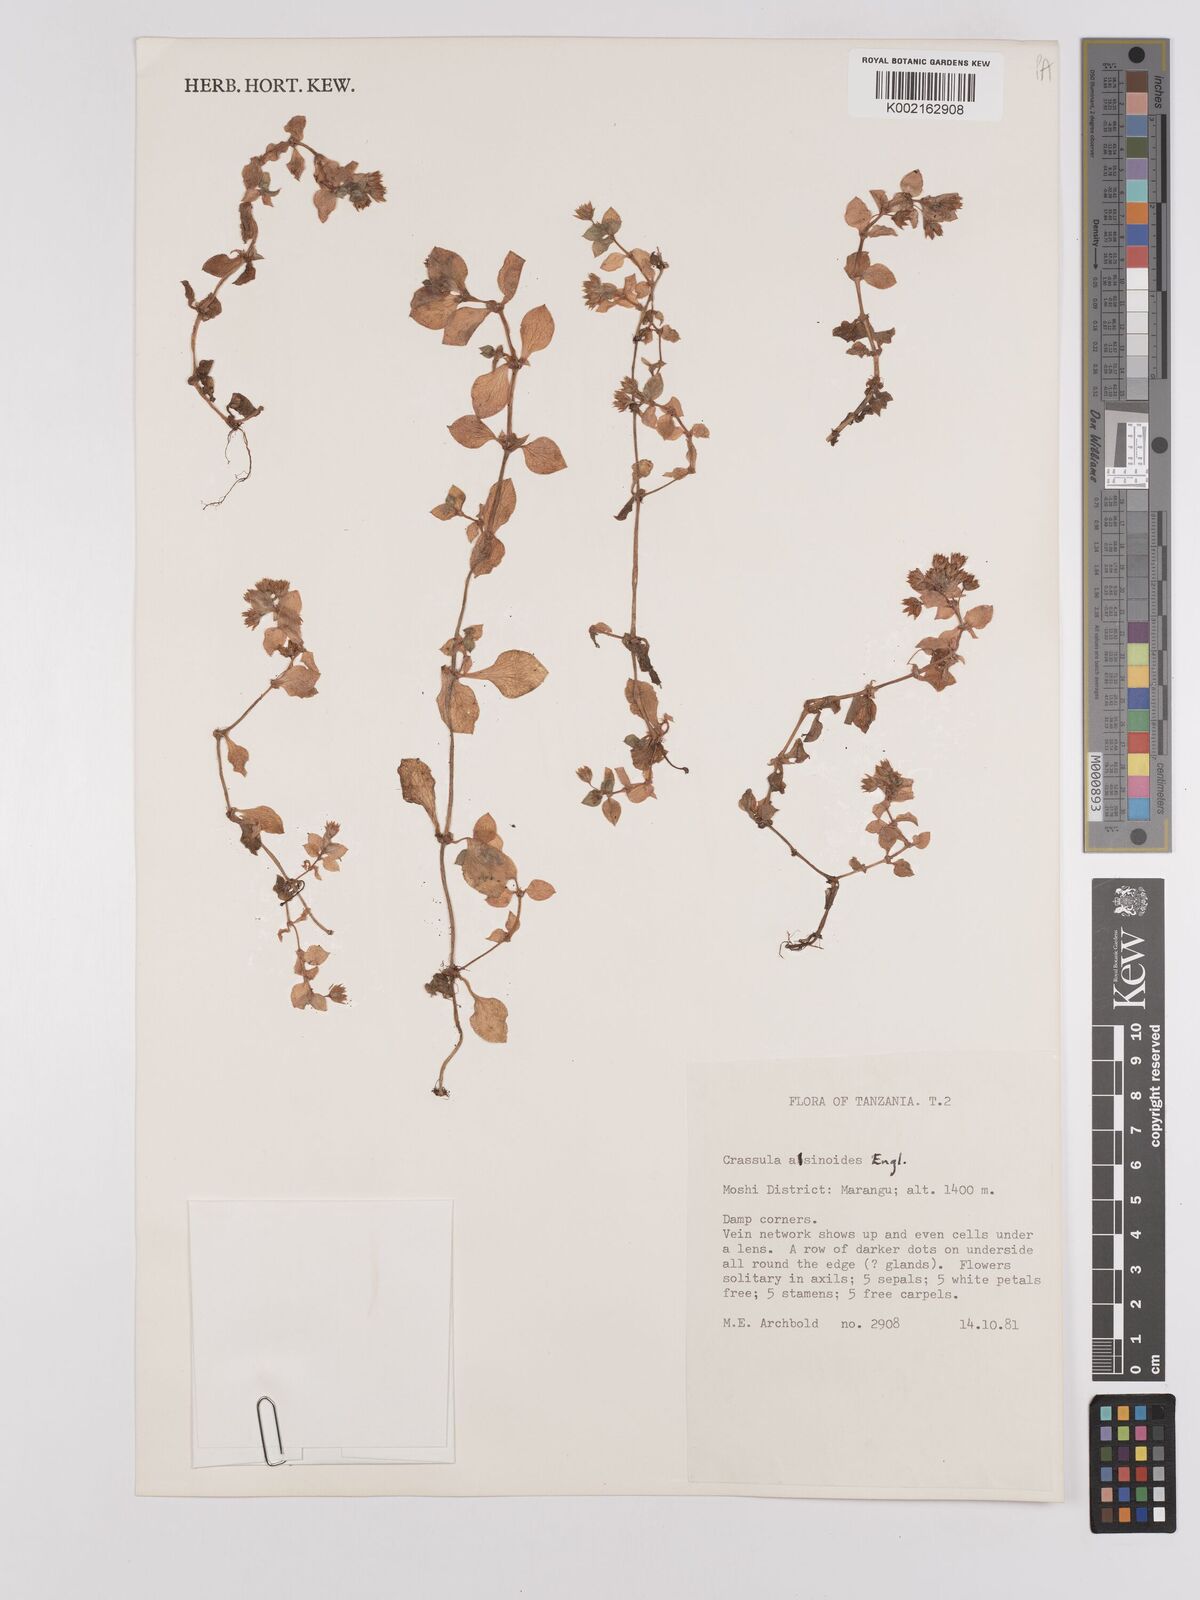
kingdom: Plantae
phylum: Tracheophyta
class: Magnoliopsida
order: Saxifragales
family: Crassulaceae
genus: Crassula
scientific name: Crassula alsinoides
